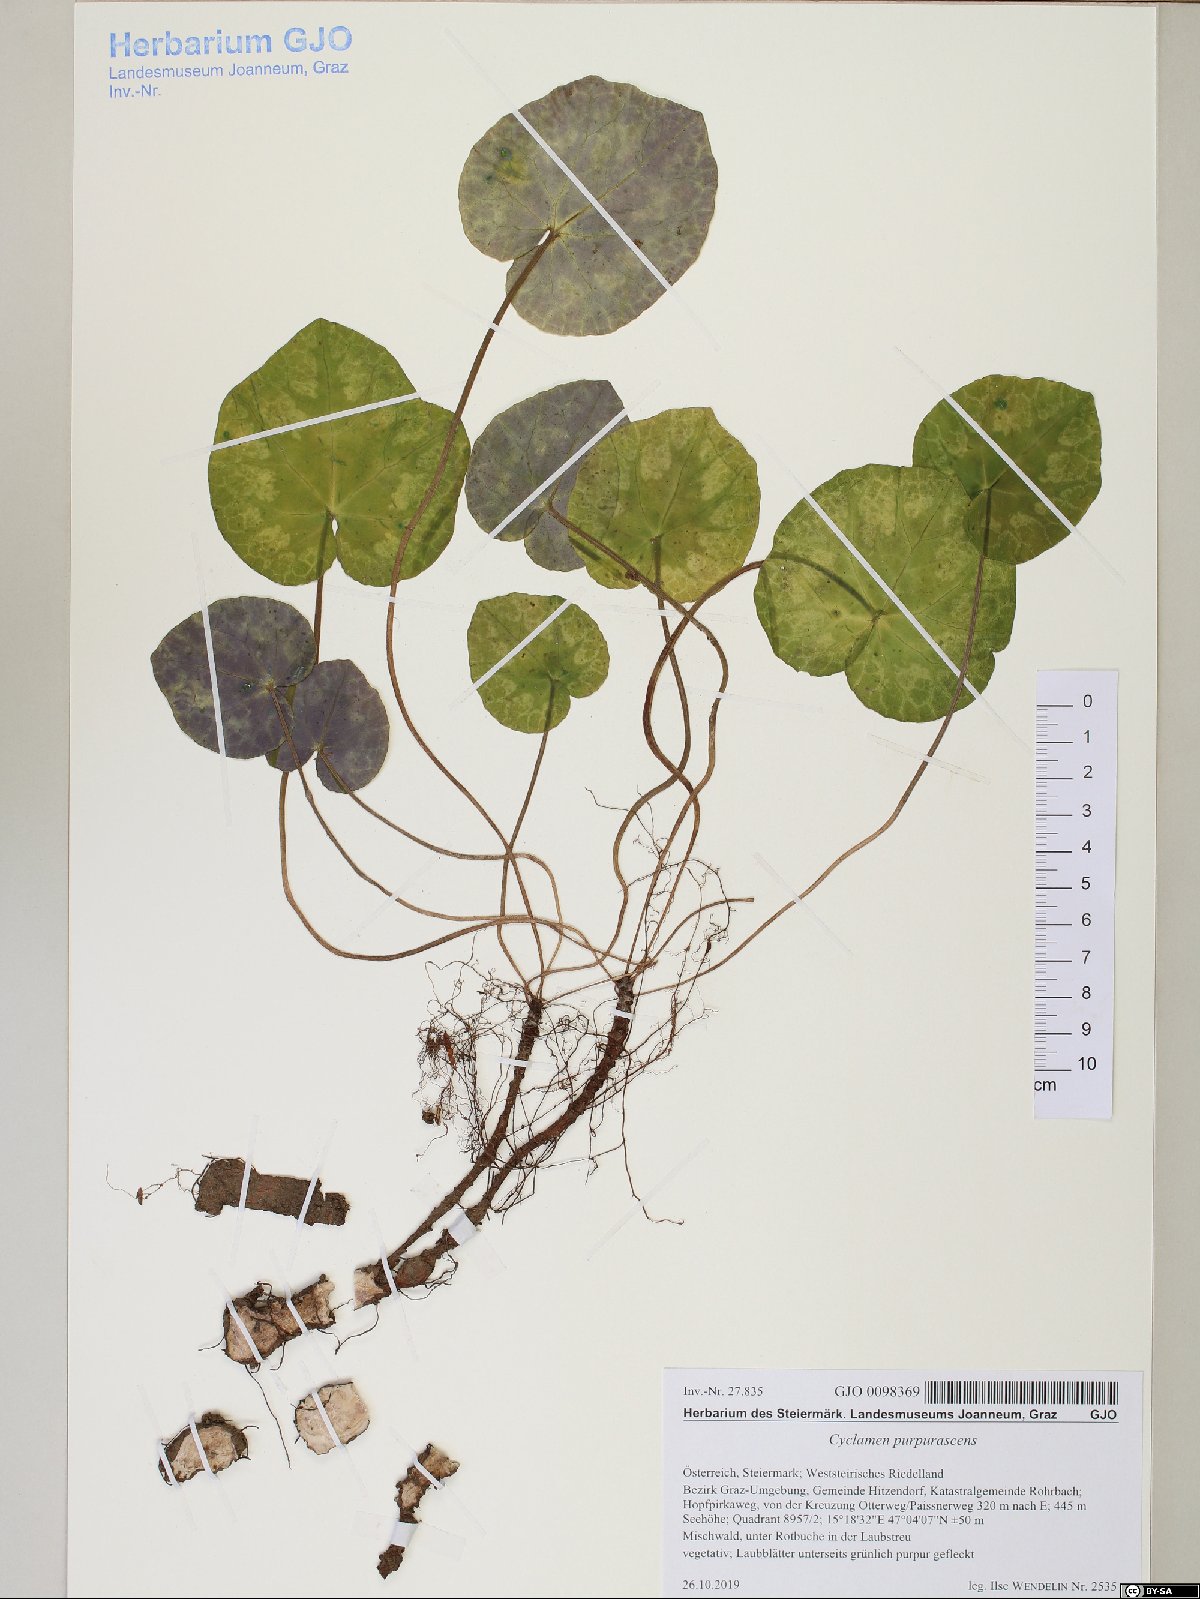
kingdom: Plantae
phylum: Tracheophyta
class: Magnoliopsida
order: Ericales
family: Primulaceae
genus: Cyclamen
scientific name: Cyclamen purpurascens
